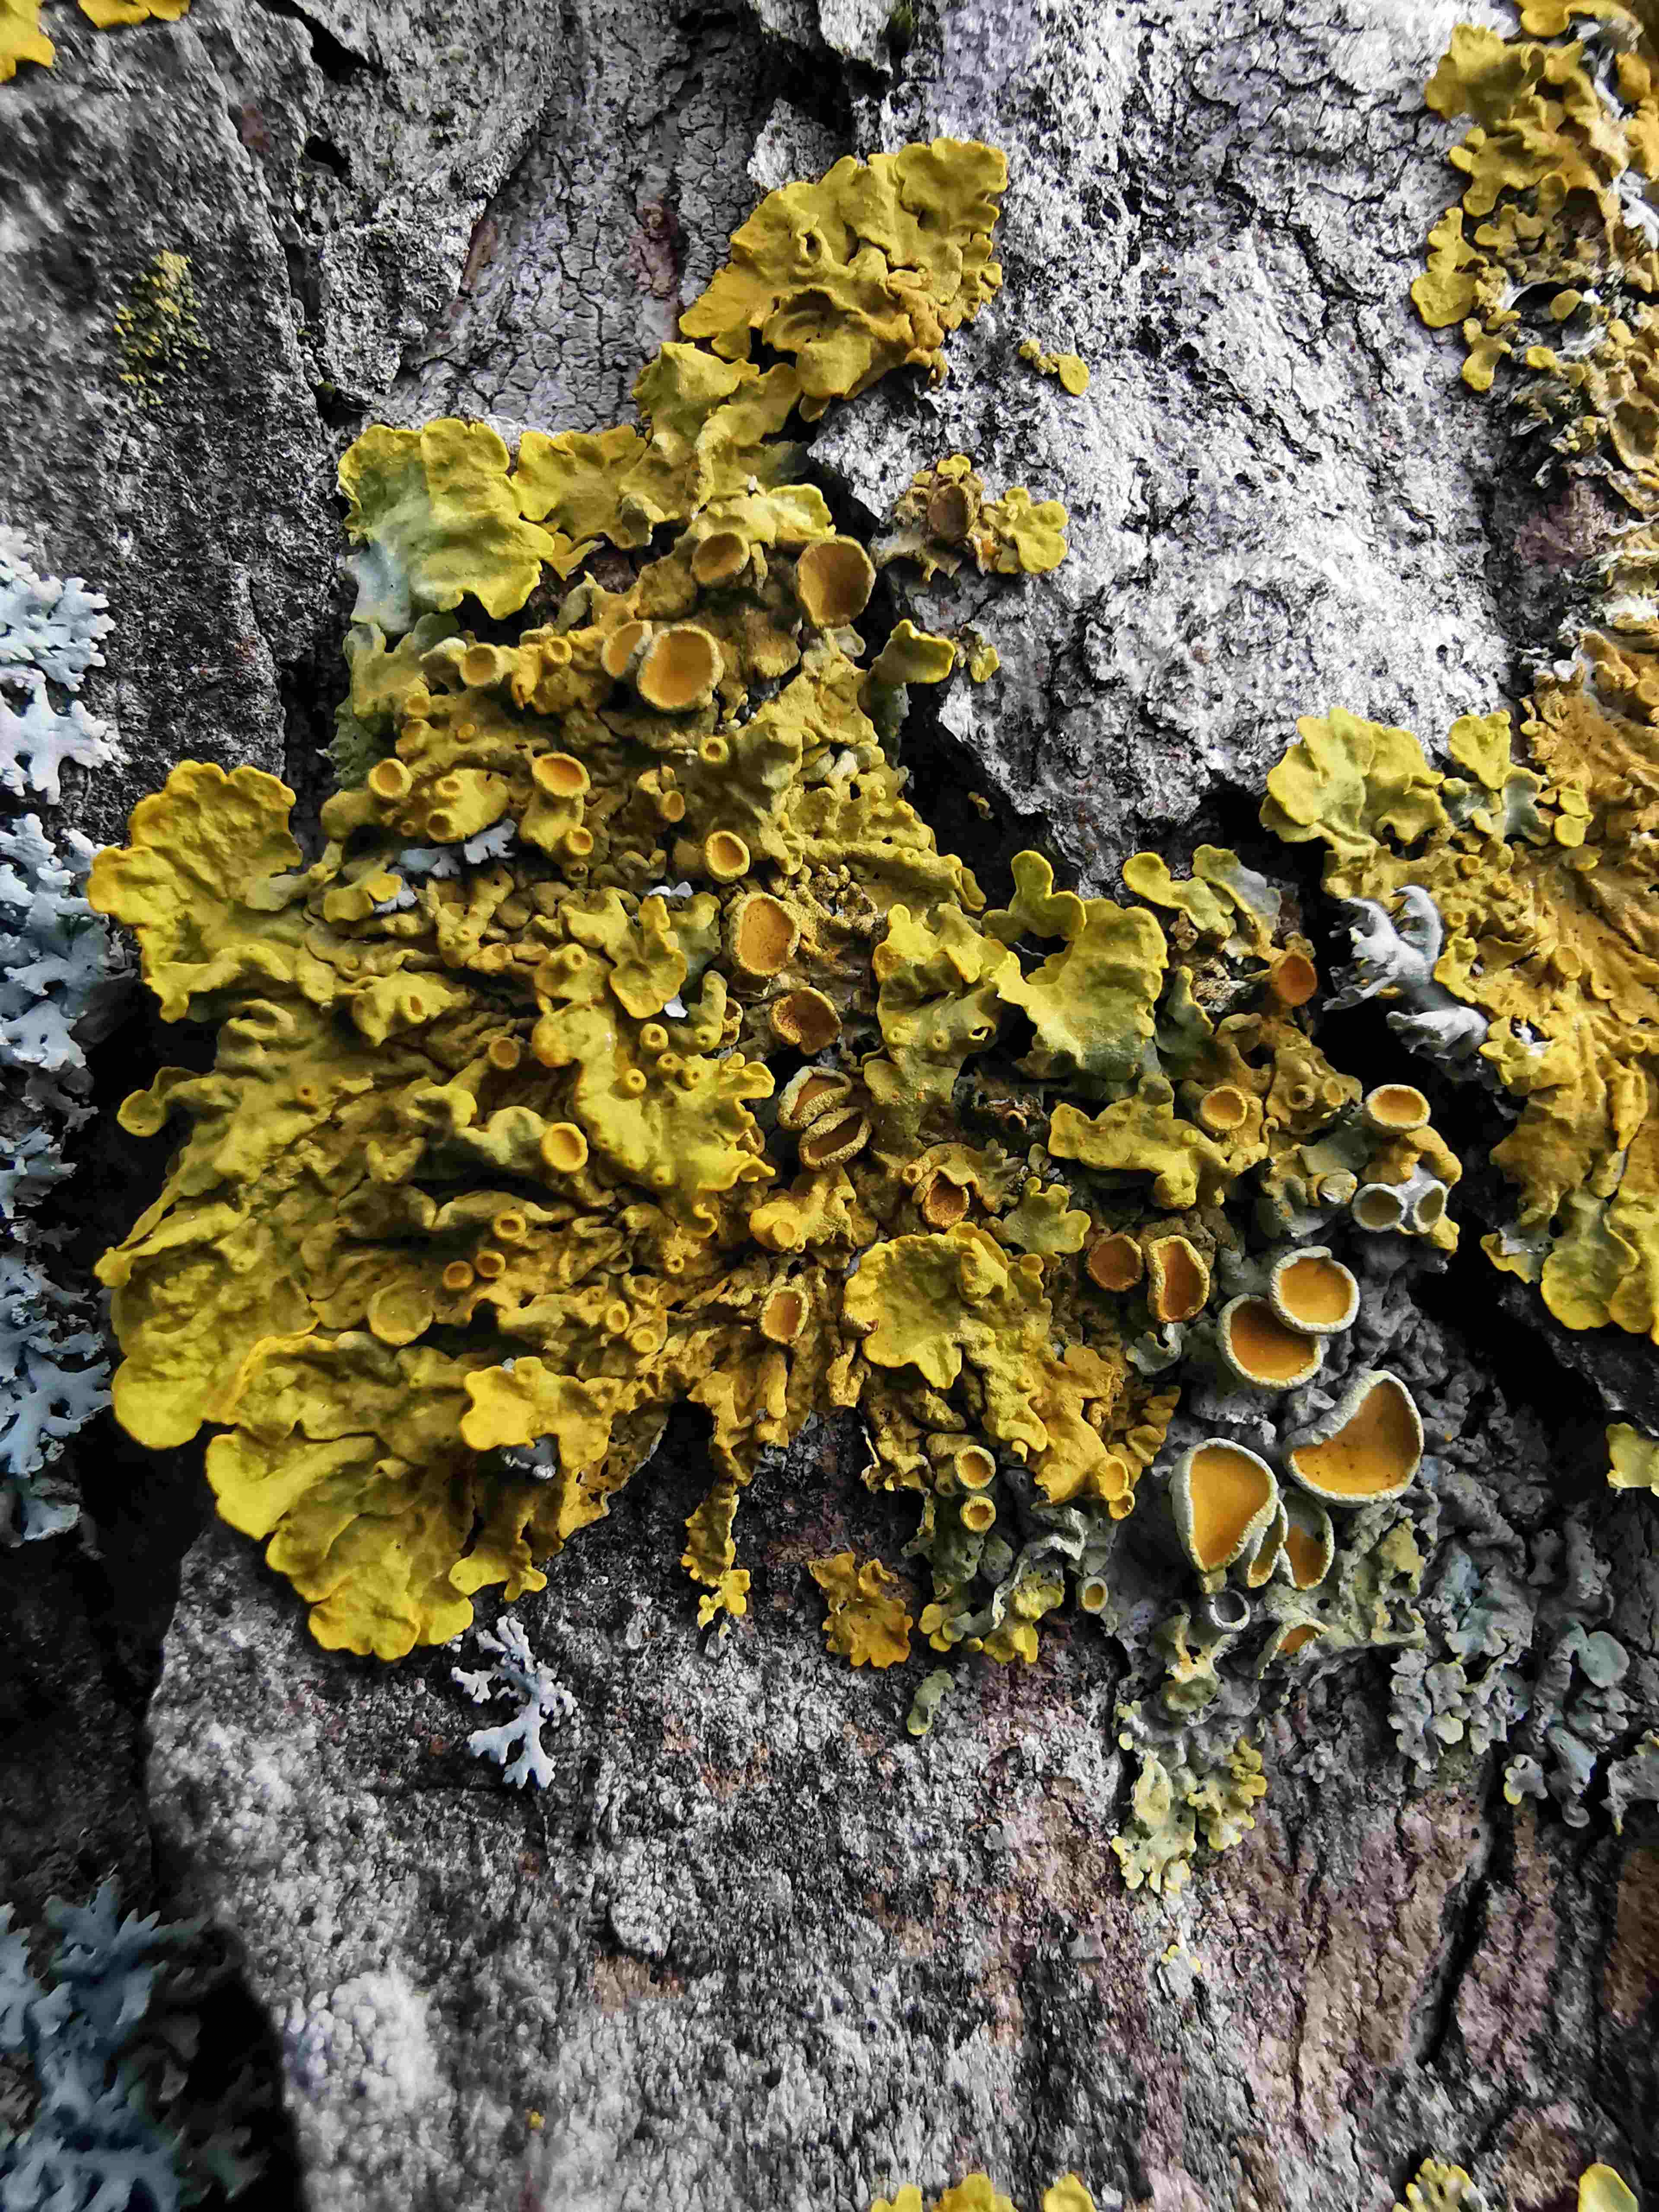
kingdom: Fungi
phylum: Ascomycota
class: Lecanoromycetes
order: Teloschistales
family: Teloschistaceae
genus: Xanthoria
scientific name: Xanthoria parietina
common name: almindelig væggelav
